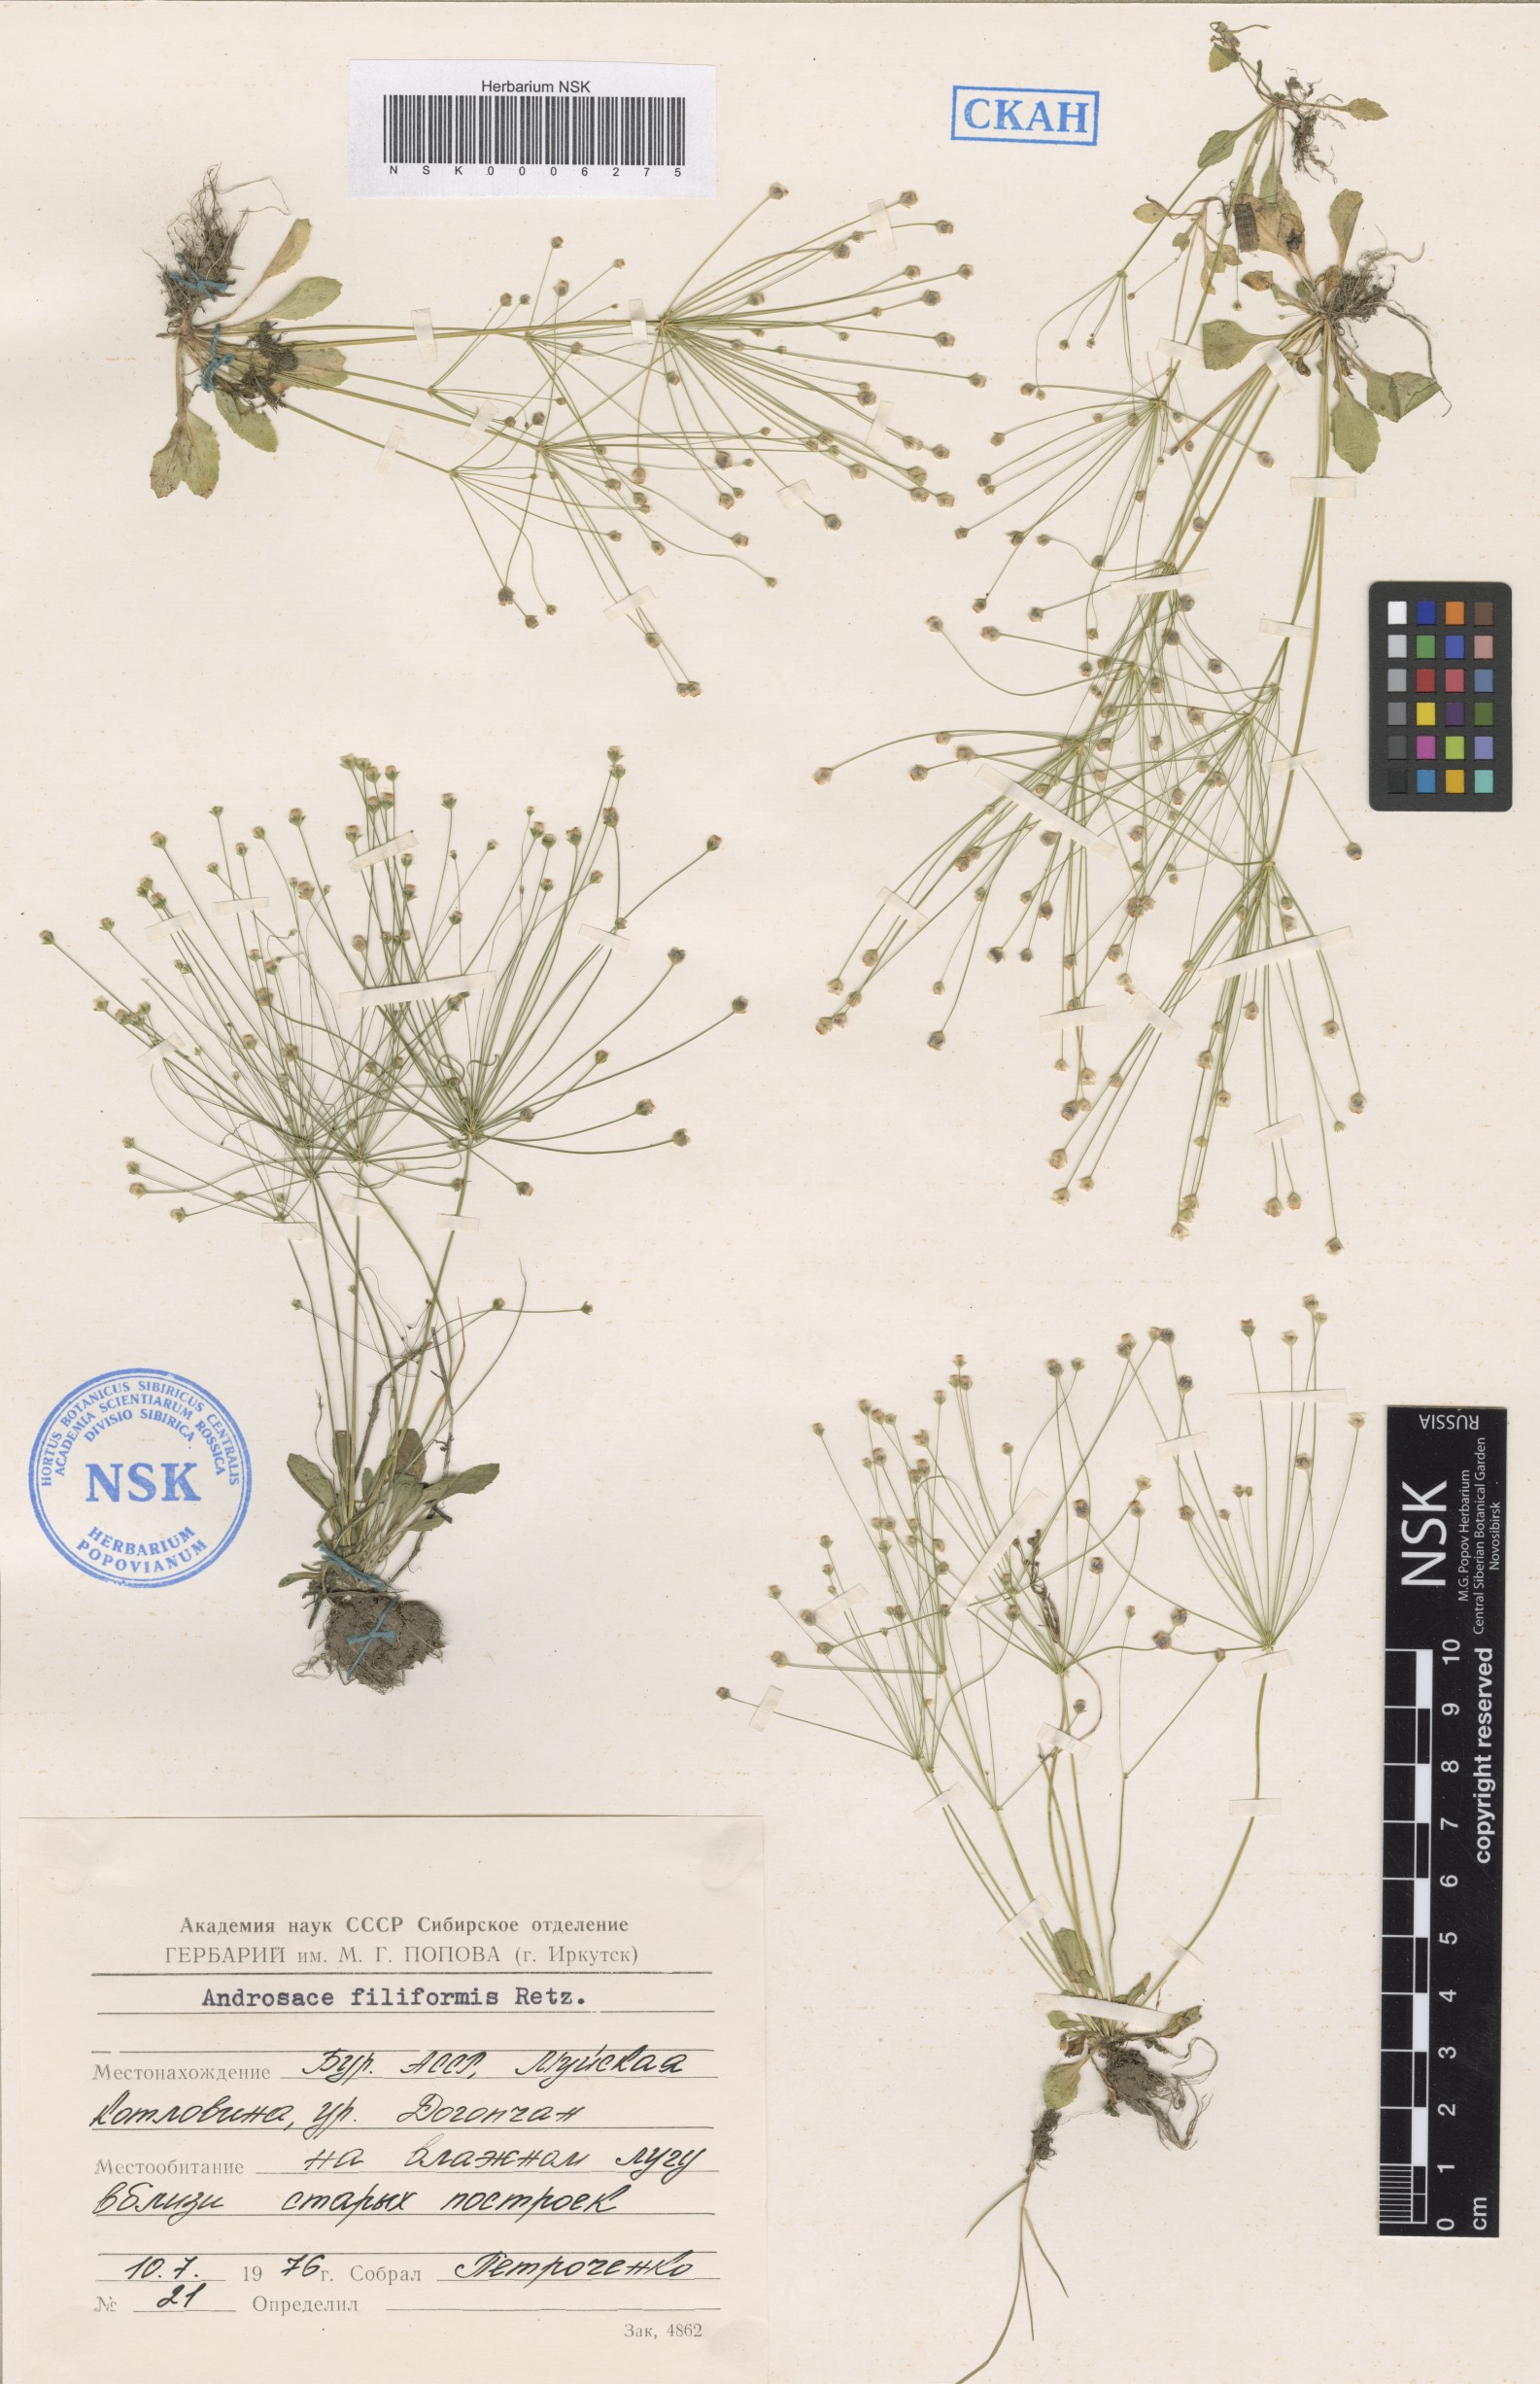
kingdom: Plantae
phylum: Tracheophyta
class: Magnoliopsida
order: Ericales
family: Primulaceae
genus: Androsace
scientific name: Androsace filiformis
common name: Filiform rock jasmine
